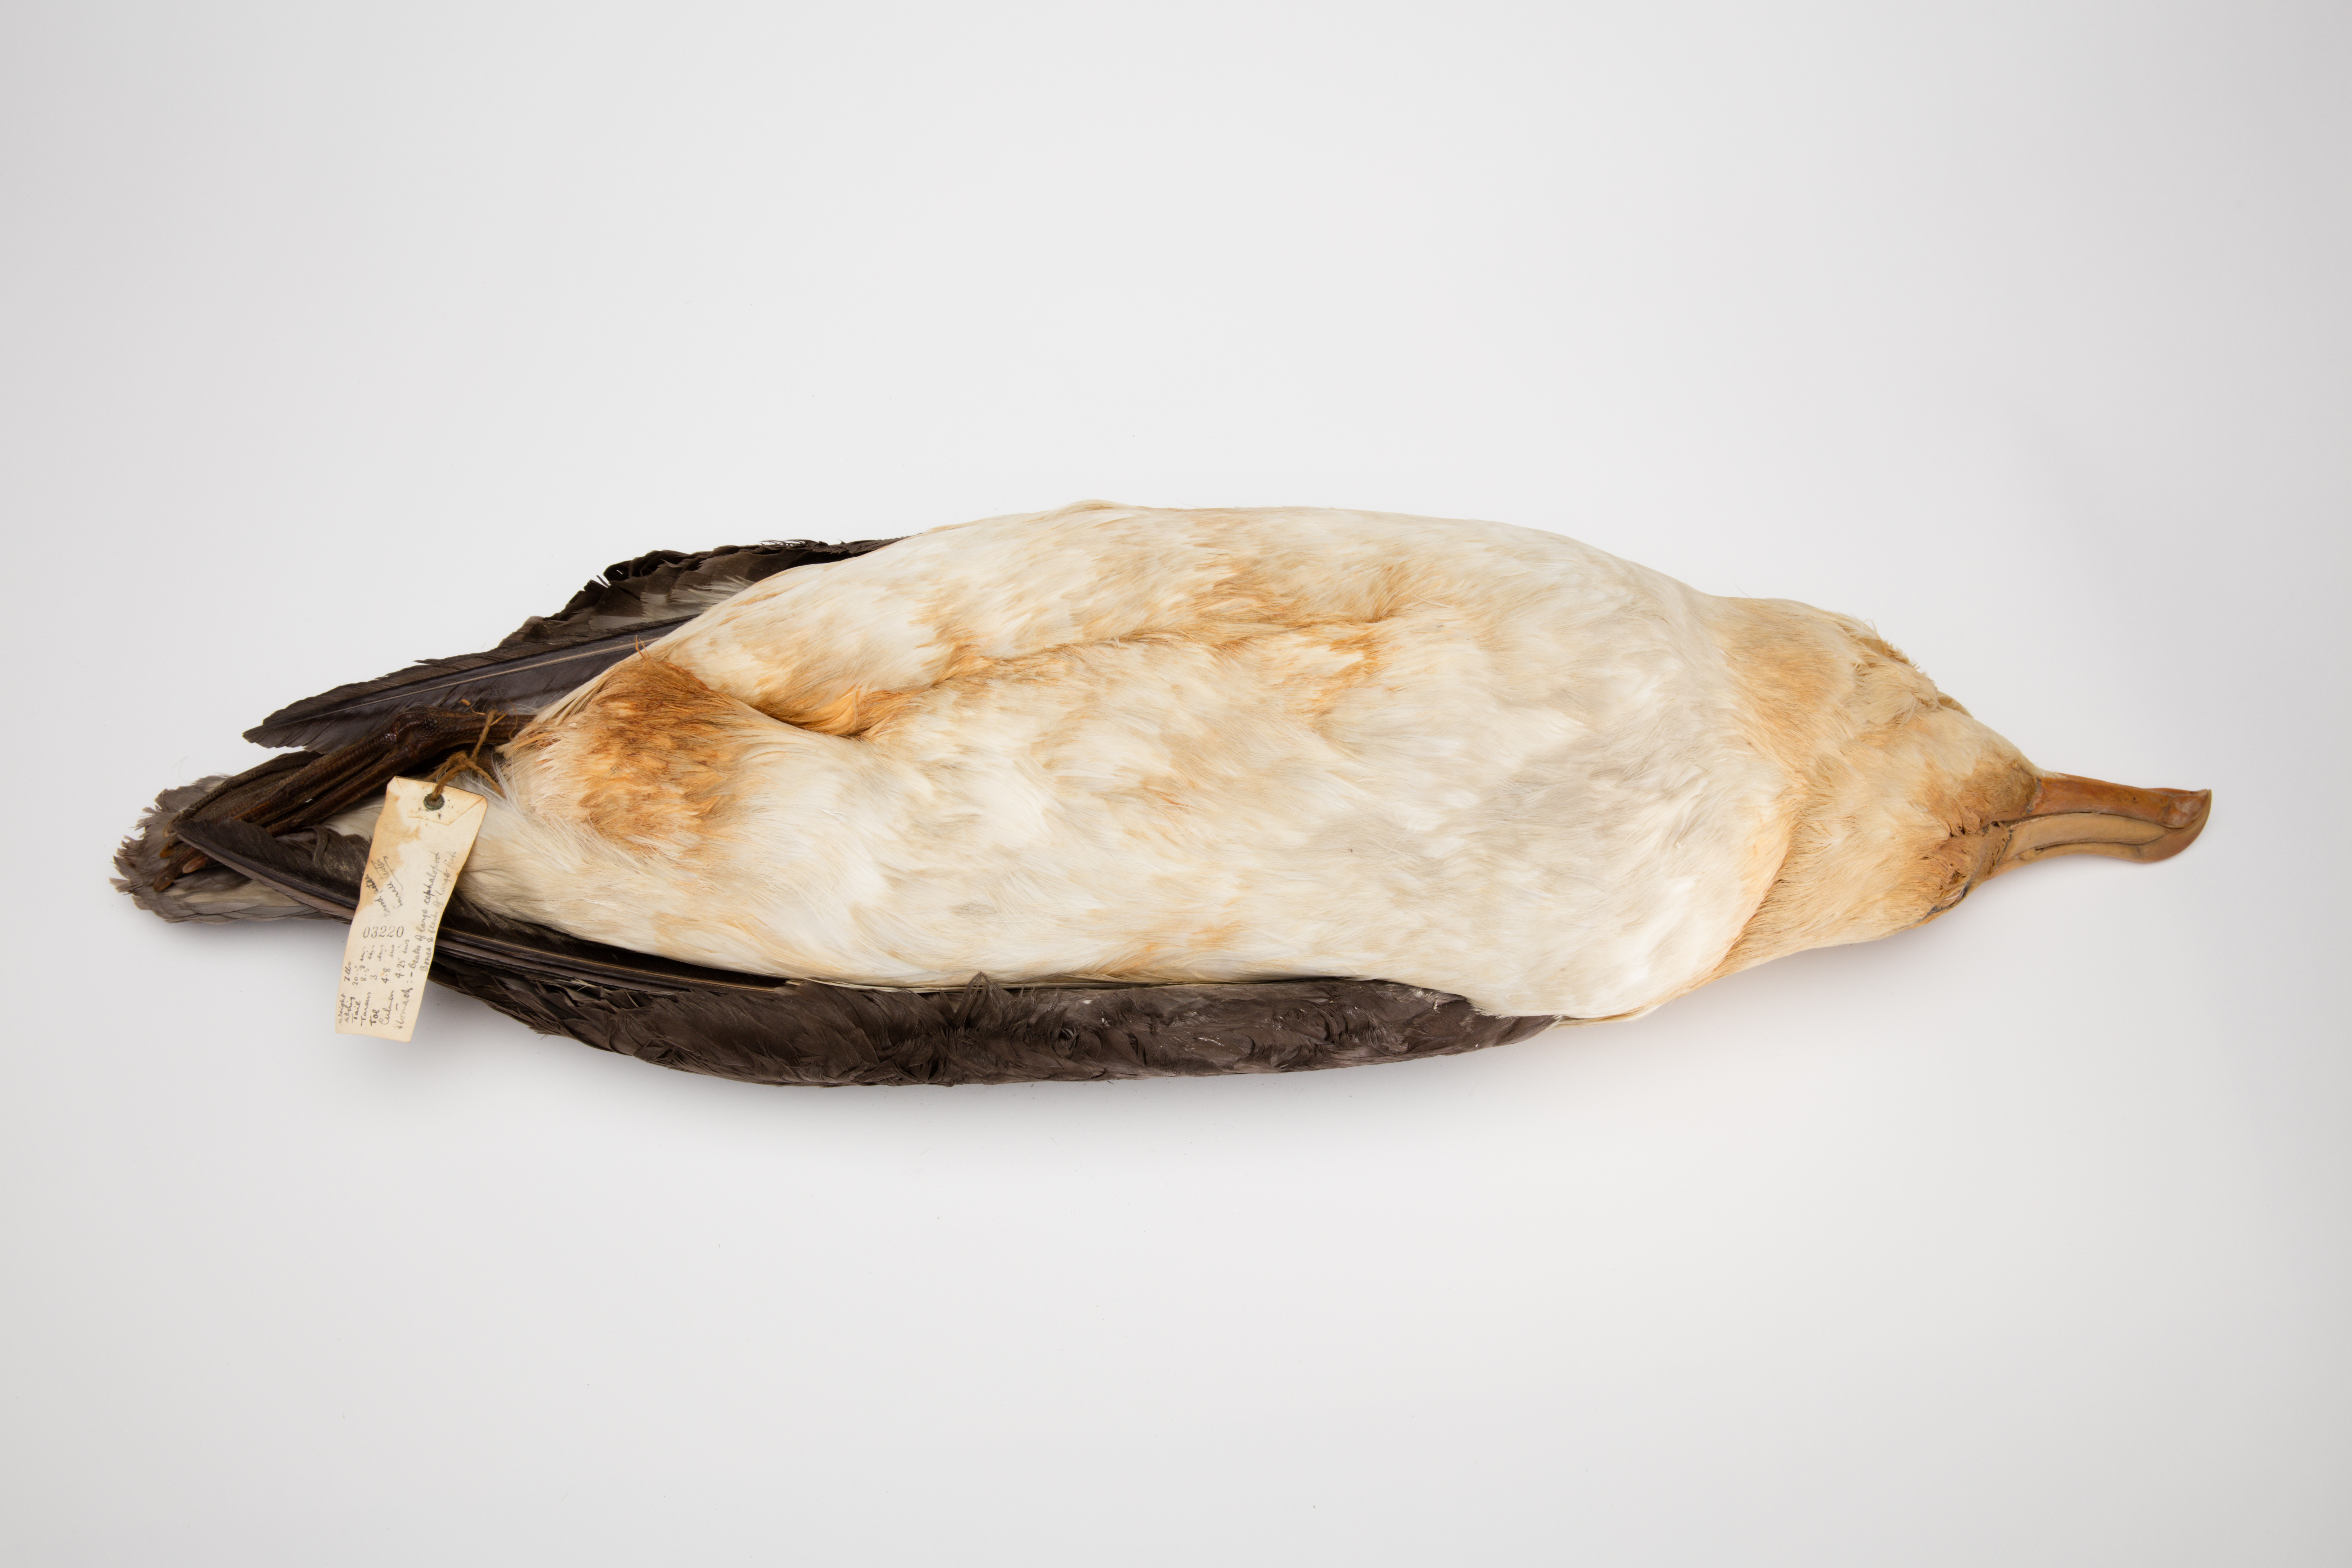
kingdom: Animalia
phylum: Chordata
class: Aves
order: Procellariiformes
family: Diomedeidae
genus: Thalassarche
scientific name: Thalassarche melanophris
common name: Black-browed albatross
